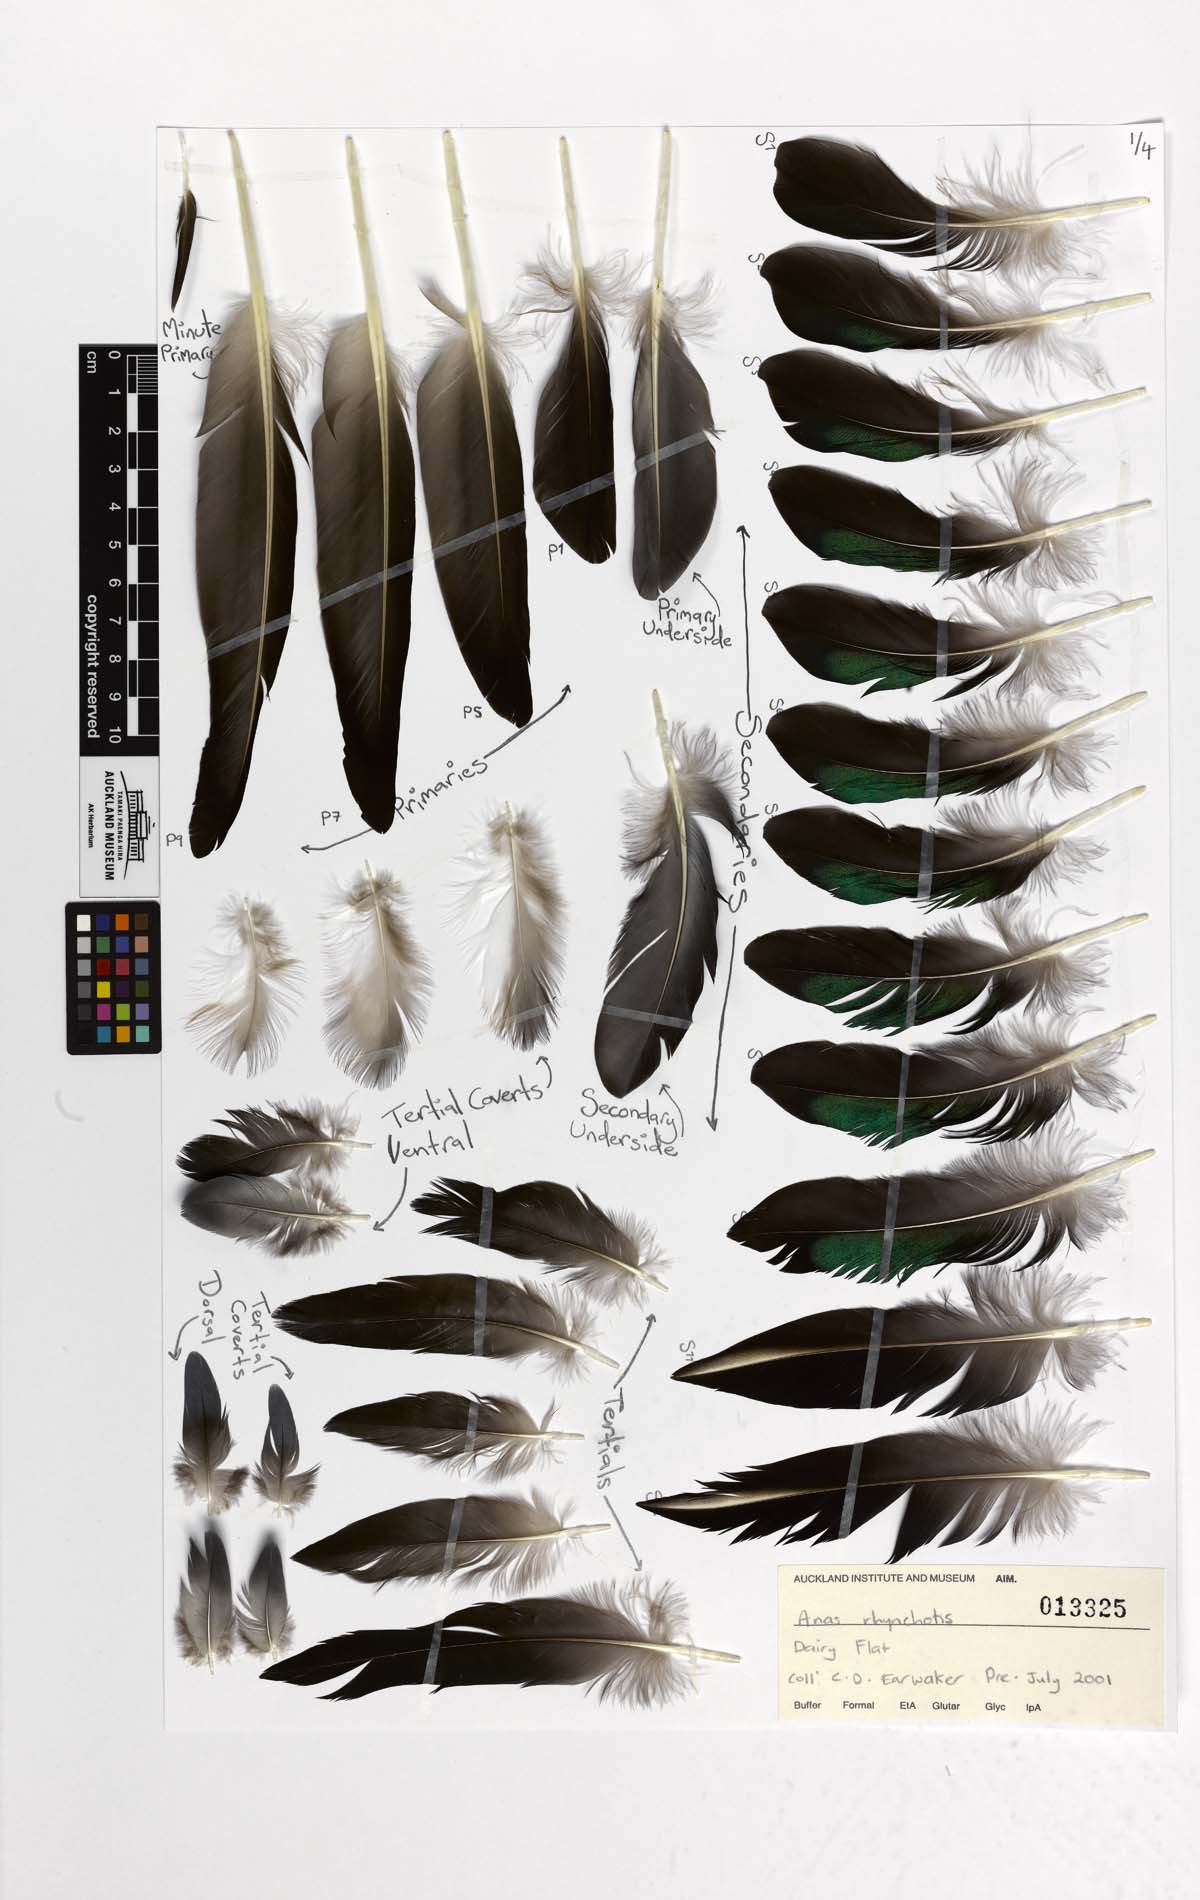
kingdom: Animalia
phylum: Chordata
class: Aves
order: Anseriformes
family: Anatidae
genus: Spatula
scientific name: Spatula rhynchotis
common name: Australian shoveler
